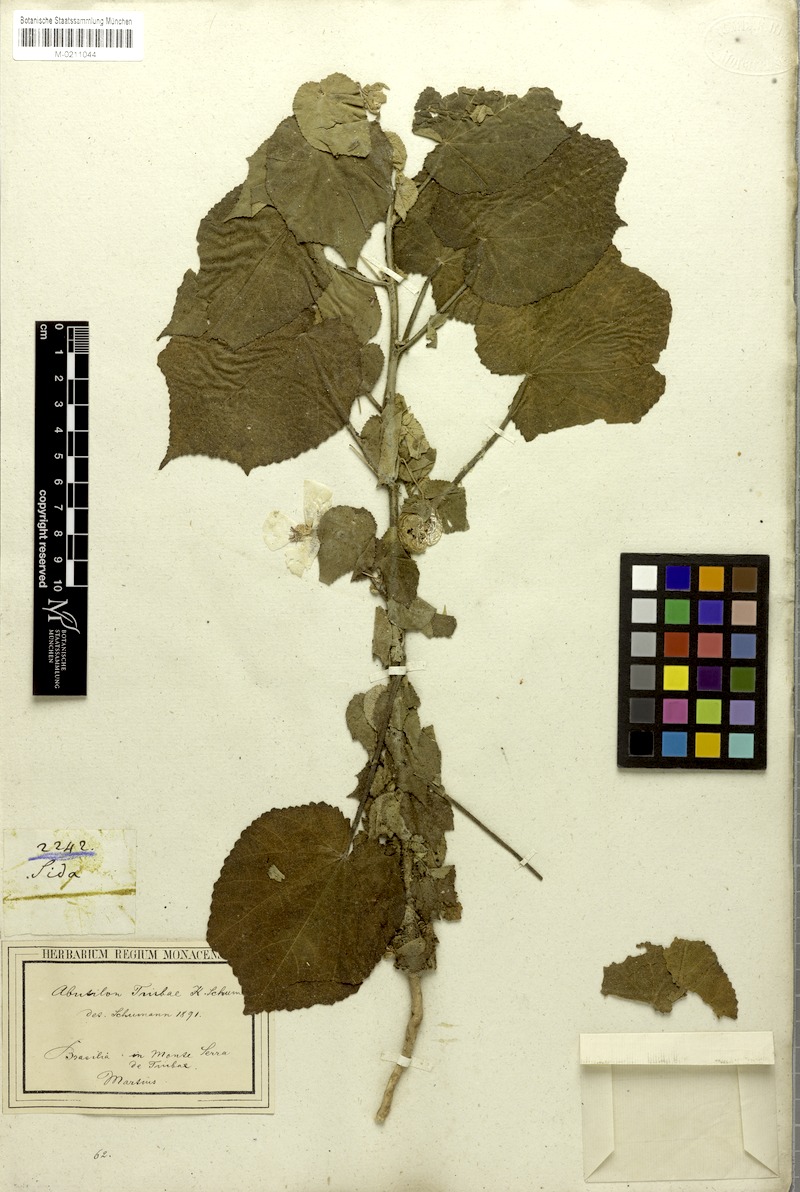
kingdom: Plantae
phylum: Tracheophyta
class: Magnoliopsida
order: Malvales
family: Malvaceae
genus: Herissantia
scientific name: Herissantia tiubae
